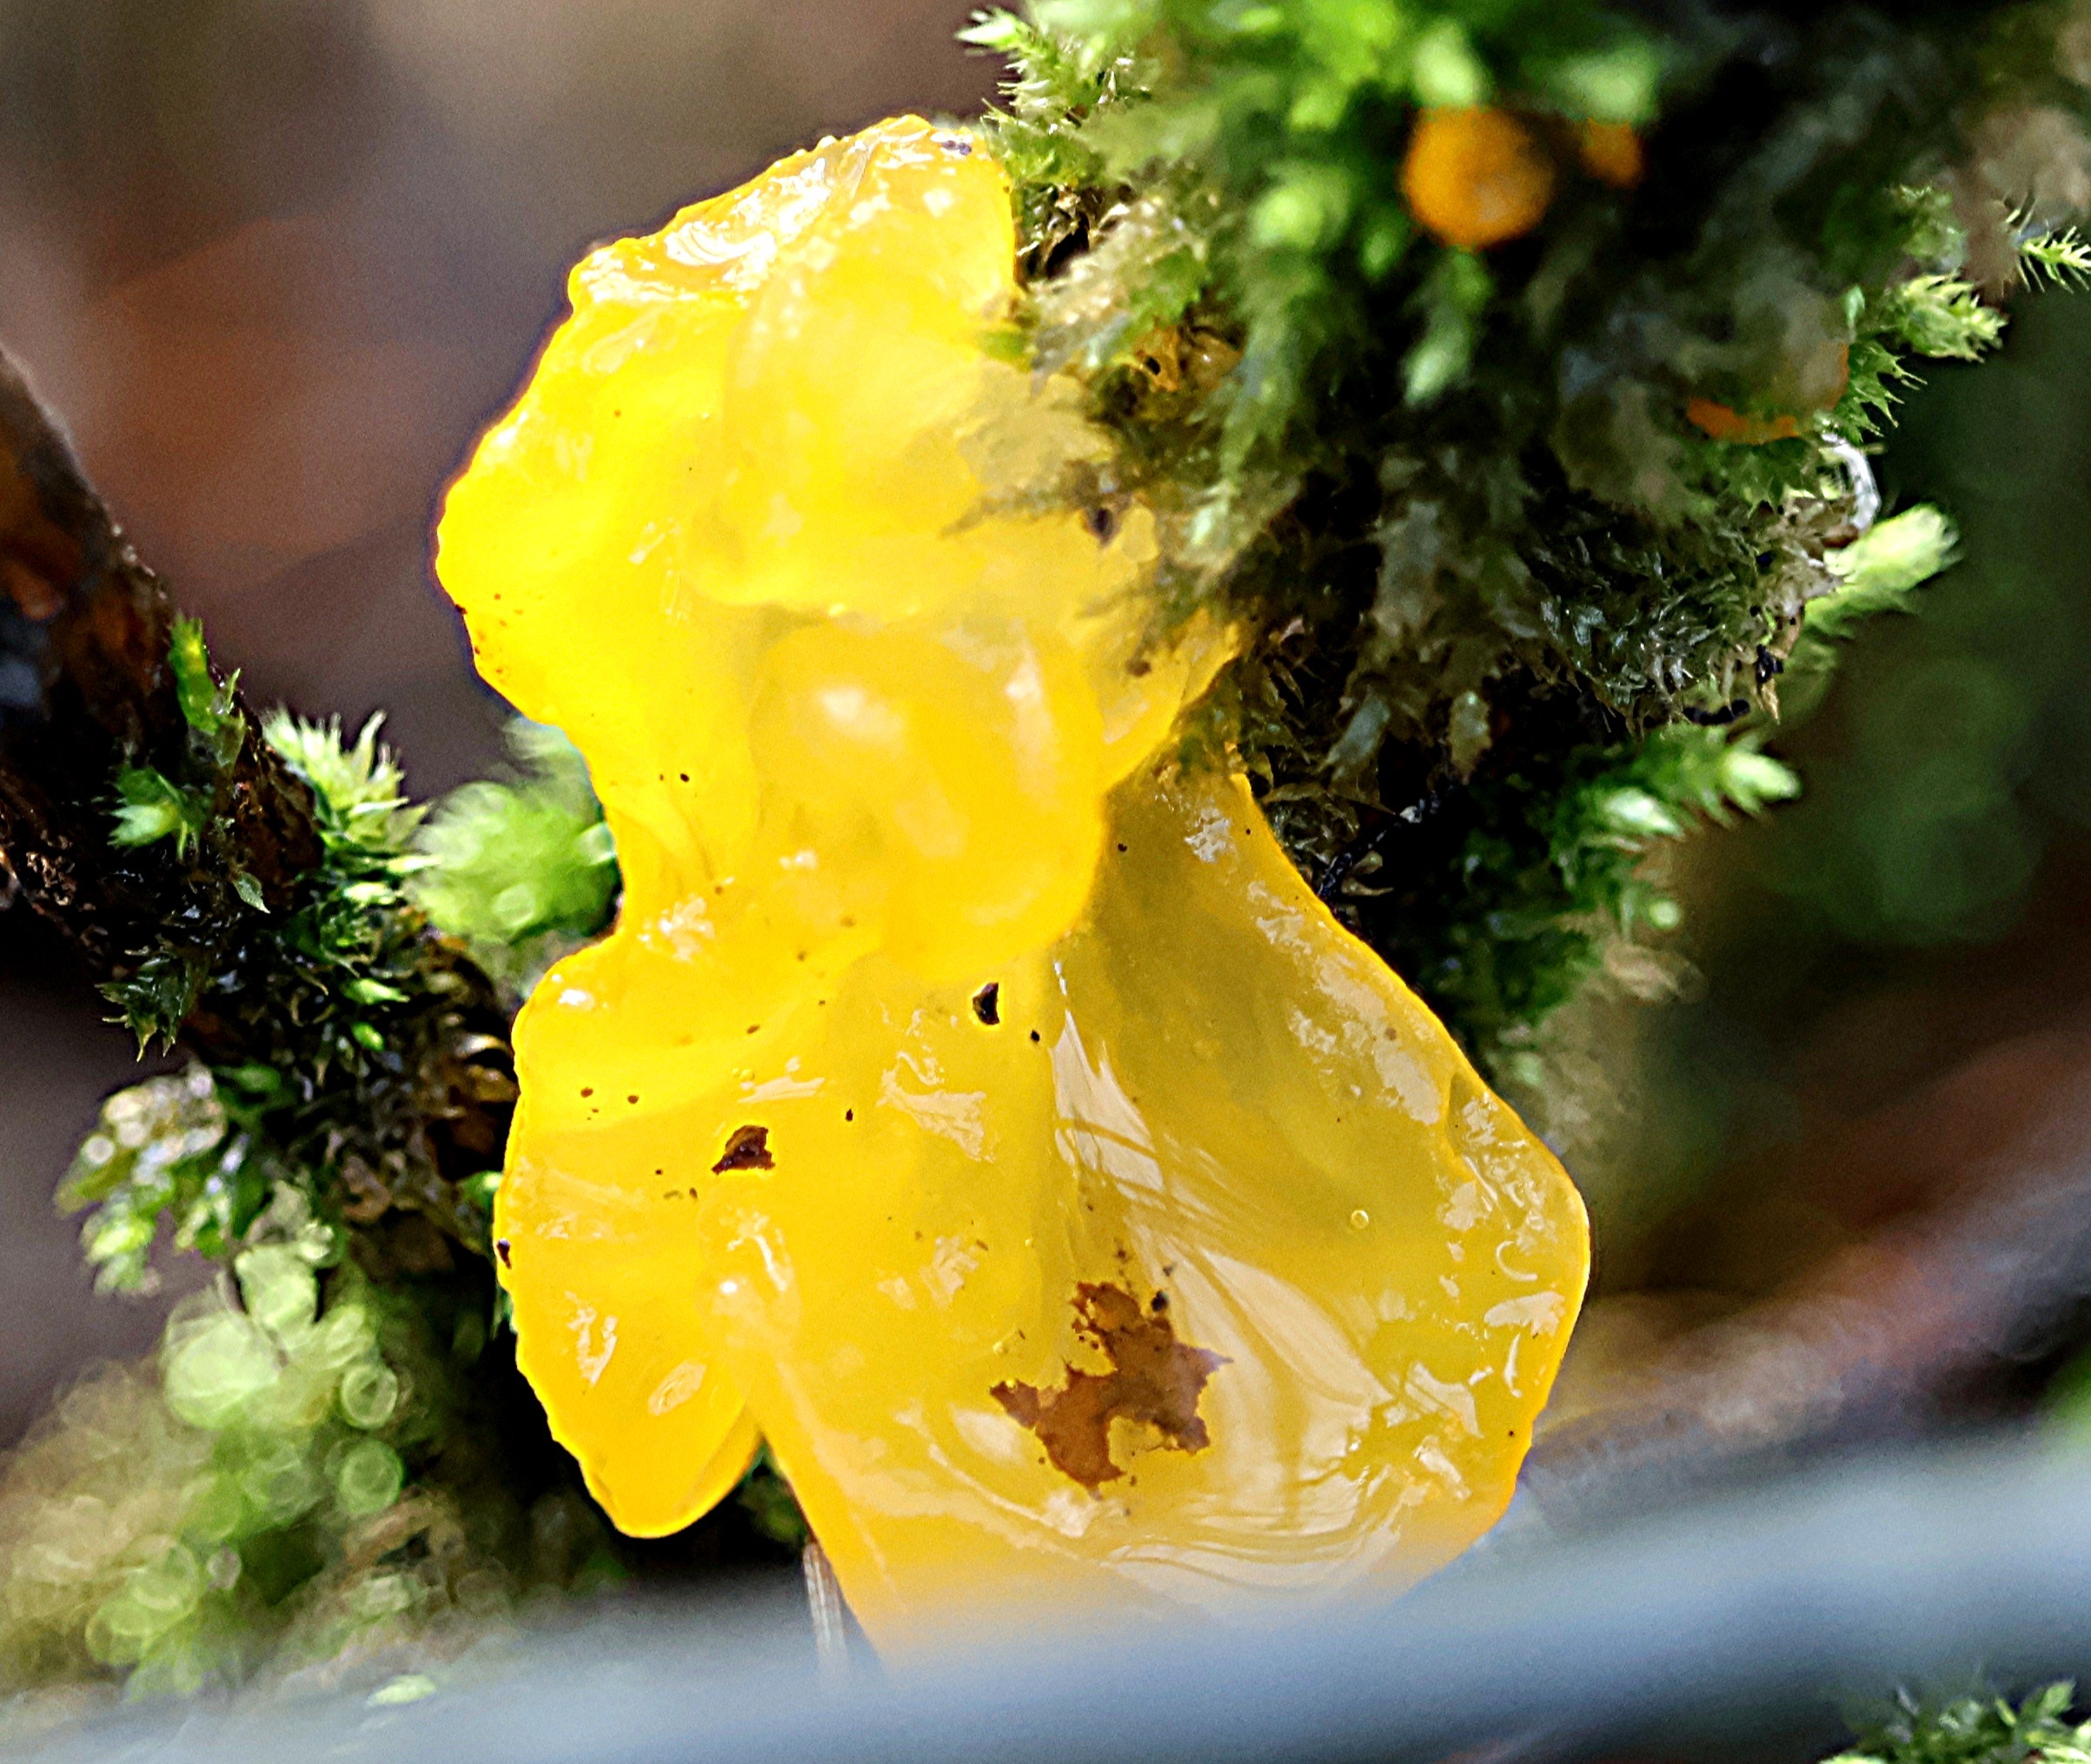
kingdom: Fungi
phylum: Basidiomycota
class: Tremellomycetes
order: Tremellales
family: Tremellaceae
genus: Tremella
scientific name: Tremella mesenterica
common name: Gul bævresvamp
